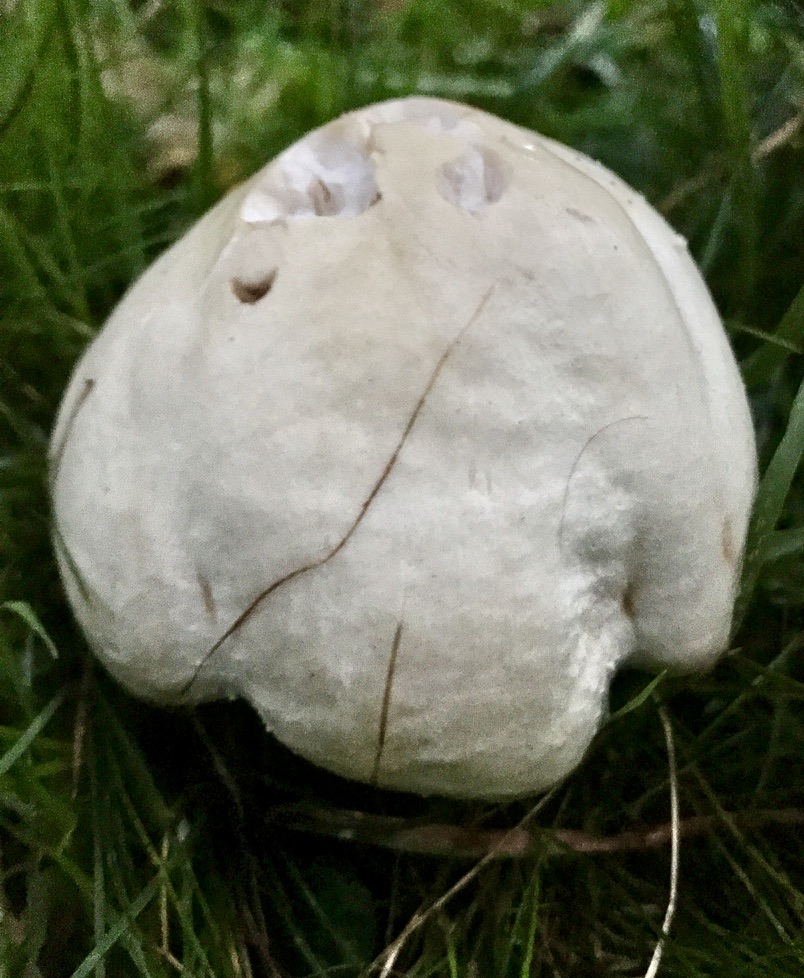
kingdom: Fungi
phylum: Basidiomycota
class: Agaricomycetes
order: Agaricales
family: Agaricaceae
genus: Agaricus
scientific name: Agaricus
